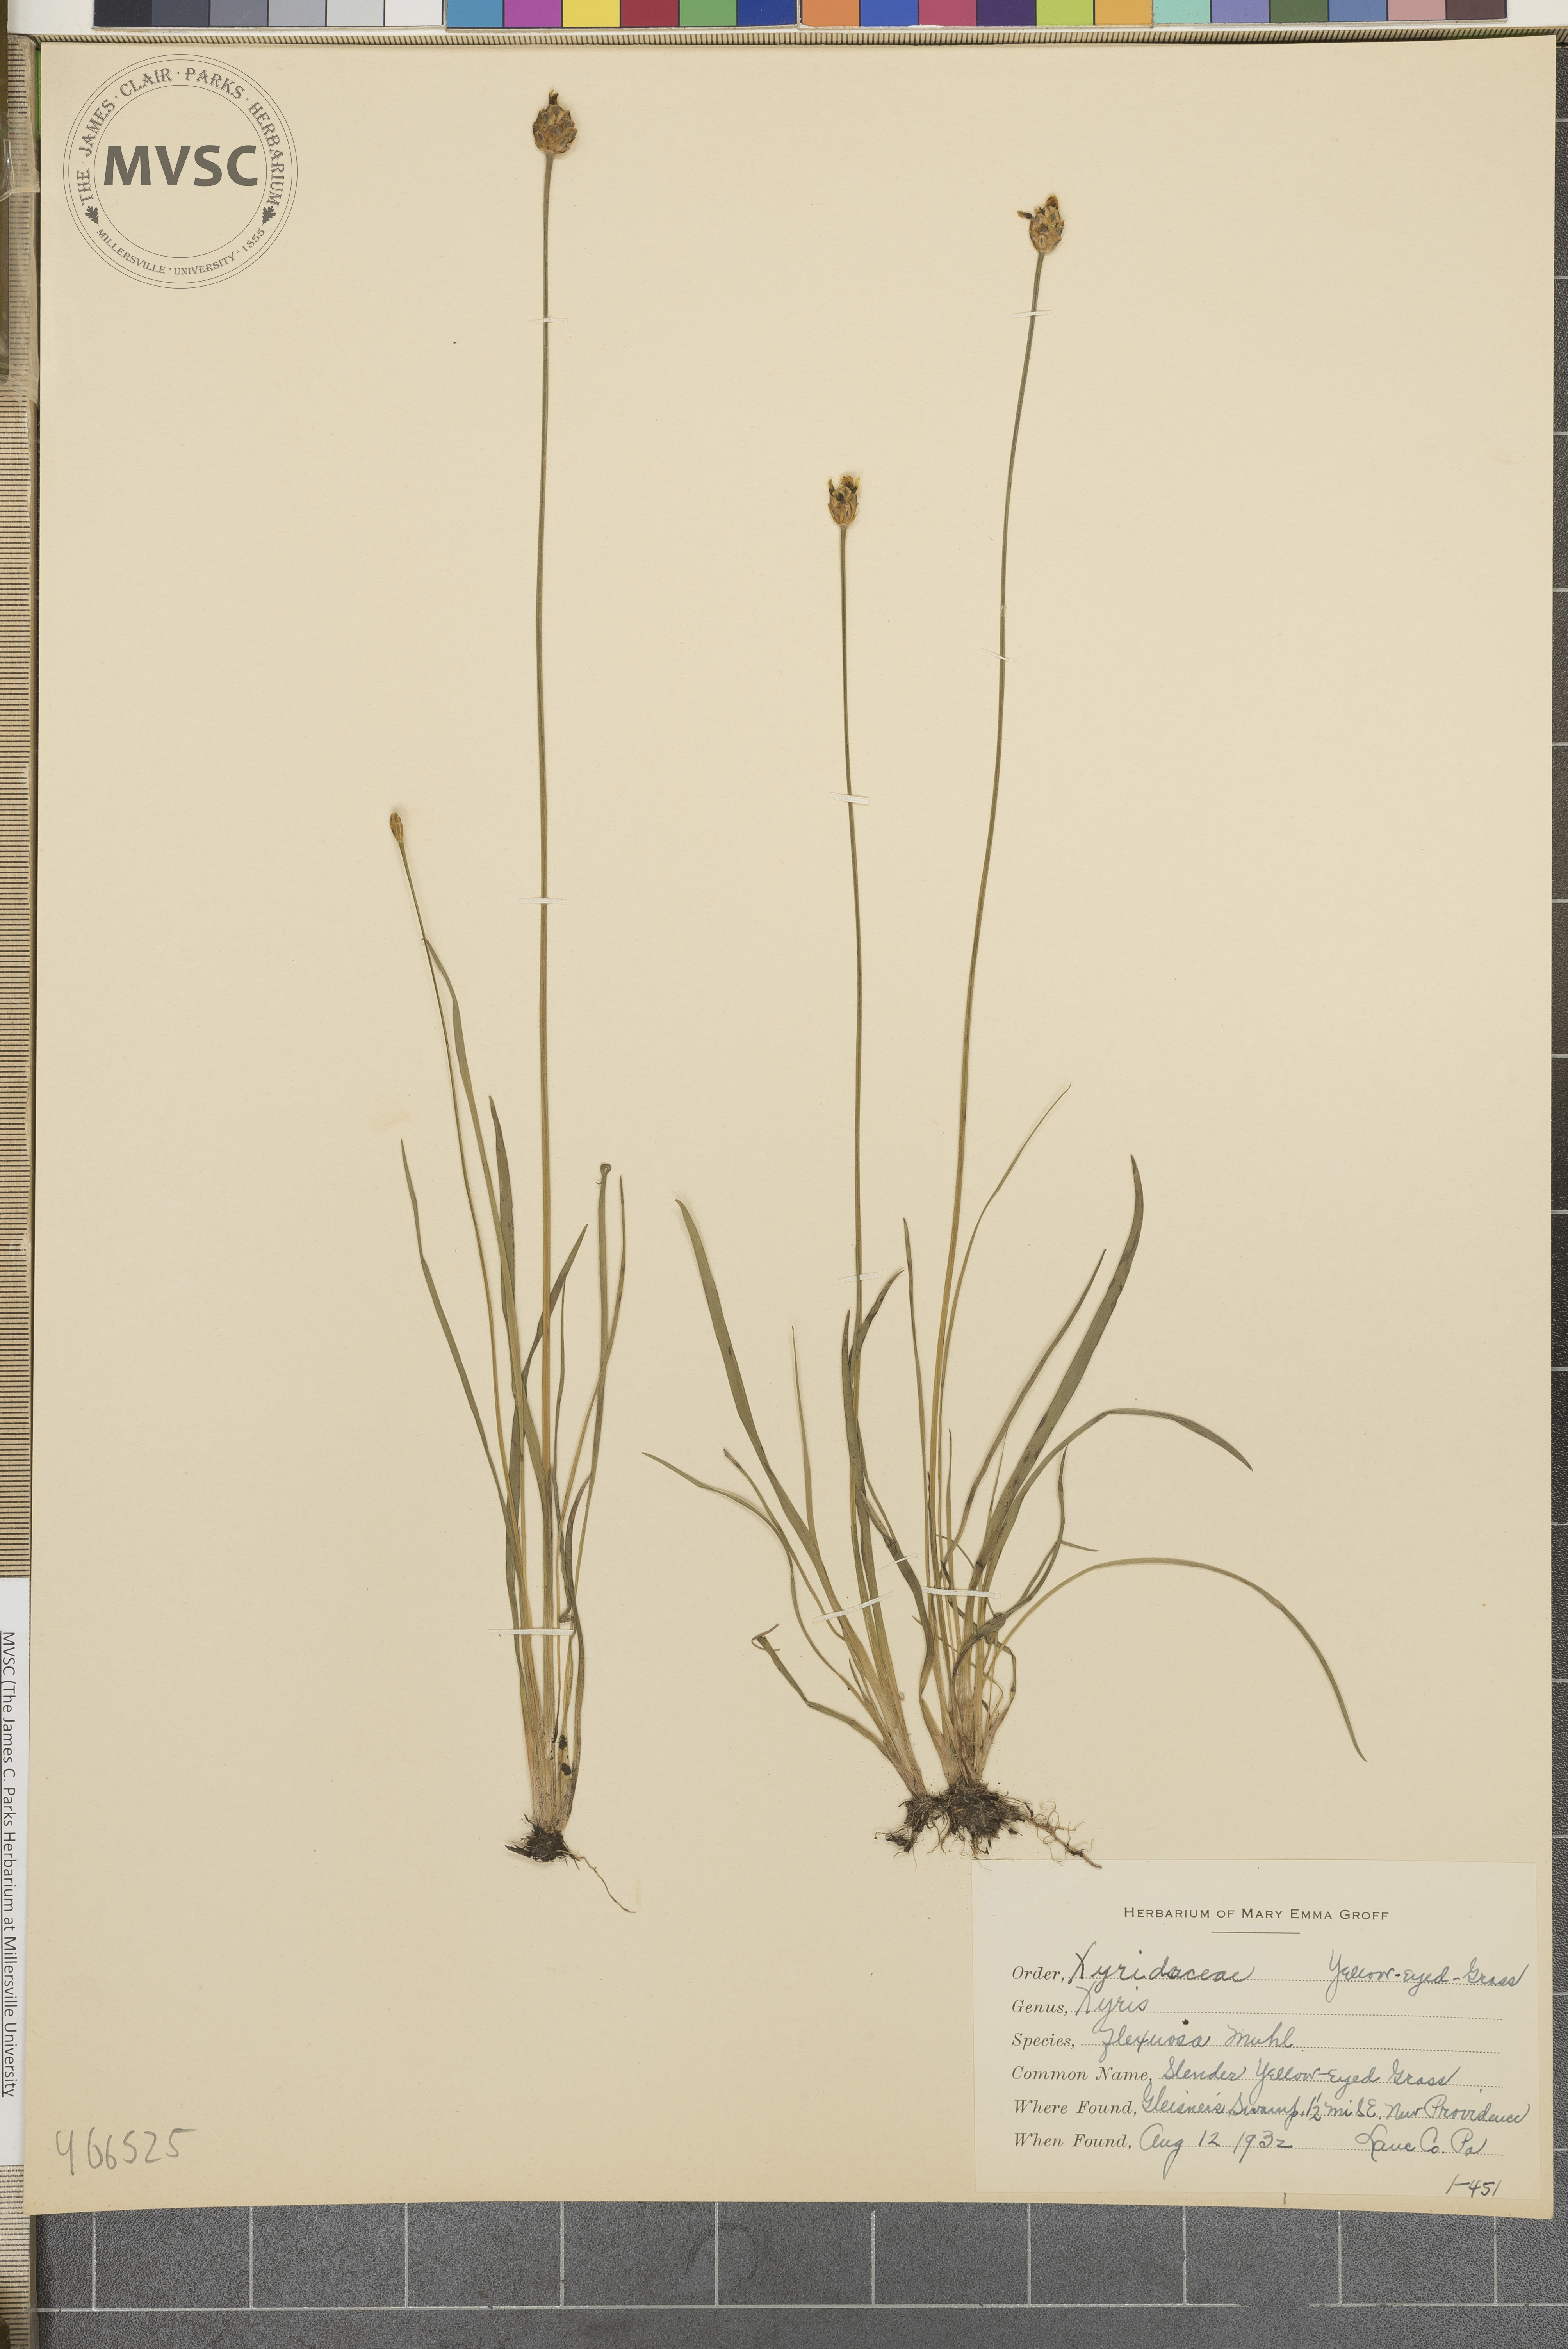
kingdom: Plantae
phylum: Tracheophyta
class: Liliopsida
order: Poales
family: Xyridaceae
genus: Xyris
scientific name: Xyris torta
